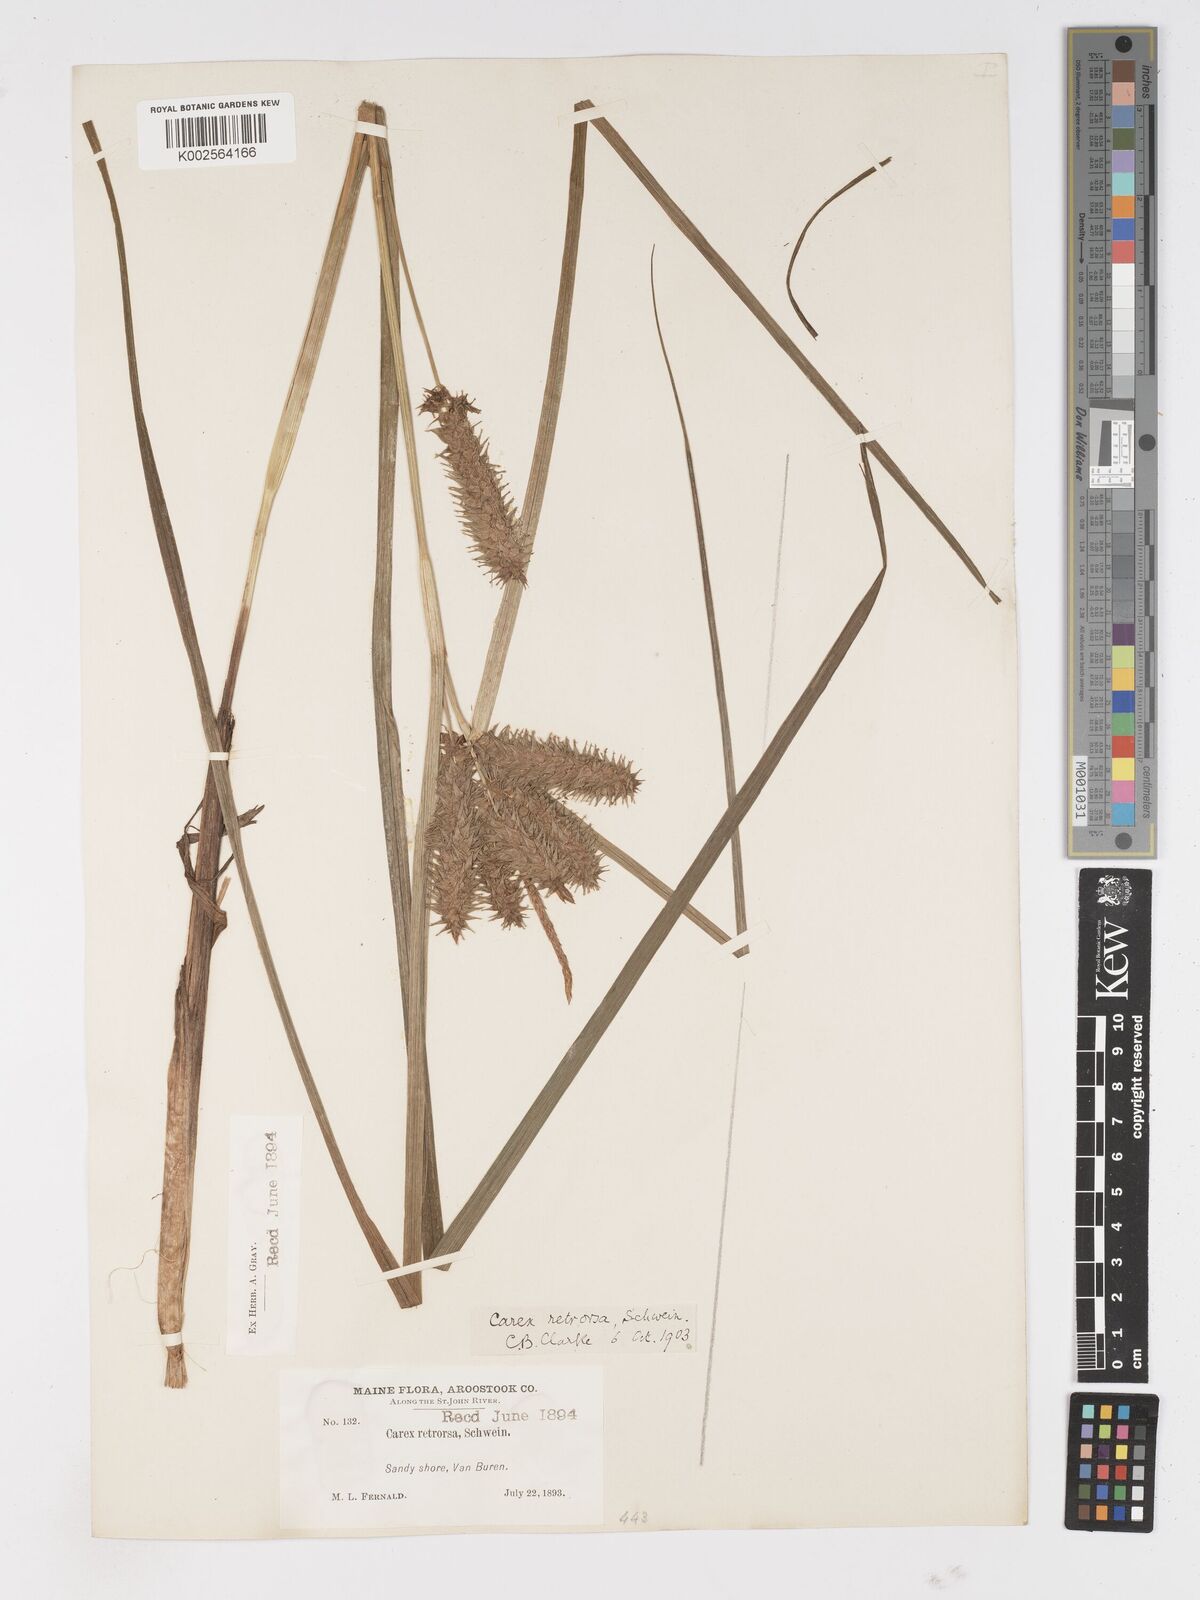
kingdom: Plantae
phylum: Tracheophyta
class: Liliopsida
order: Poales
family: Cyperaceae
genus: Carex
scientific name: Carex retrorsa
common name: Knot-sheath sedge
